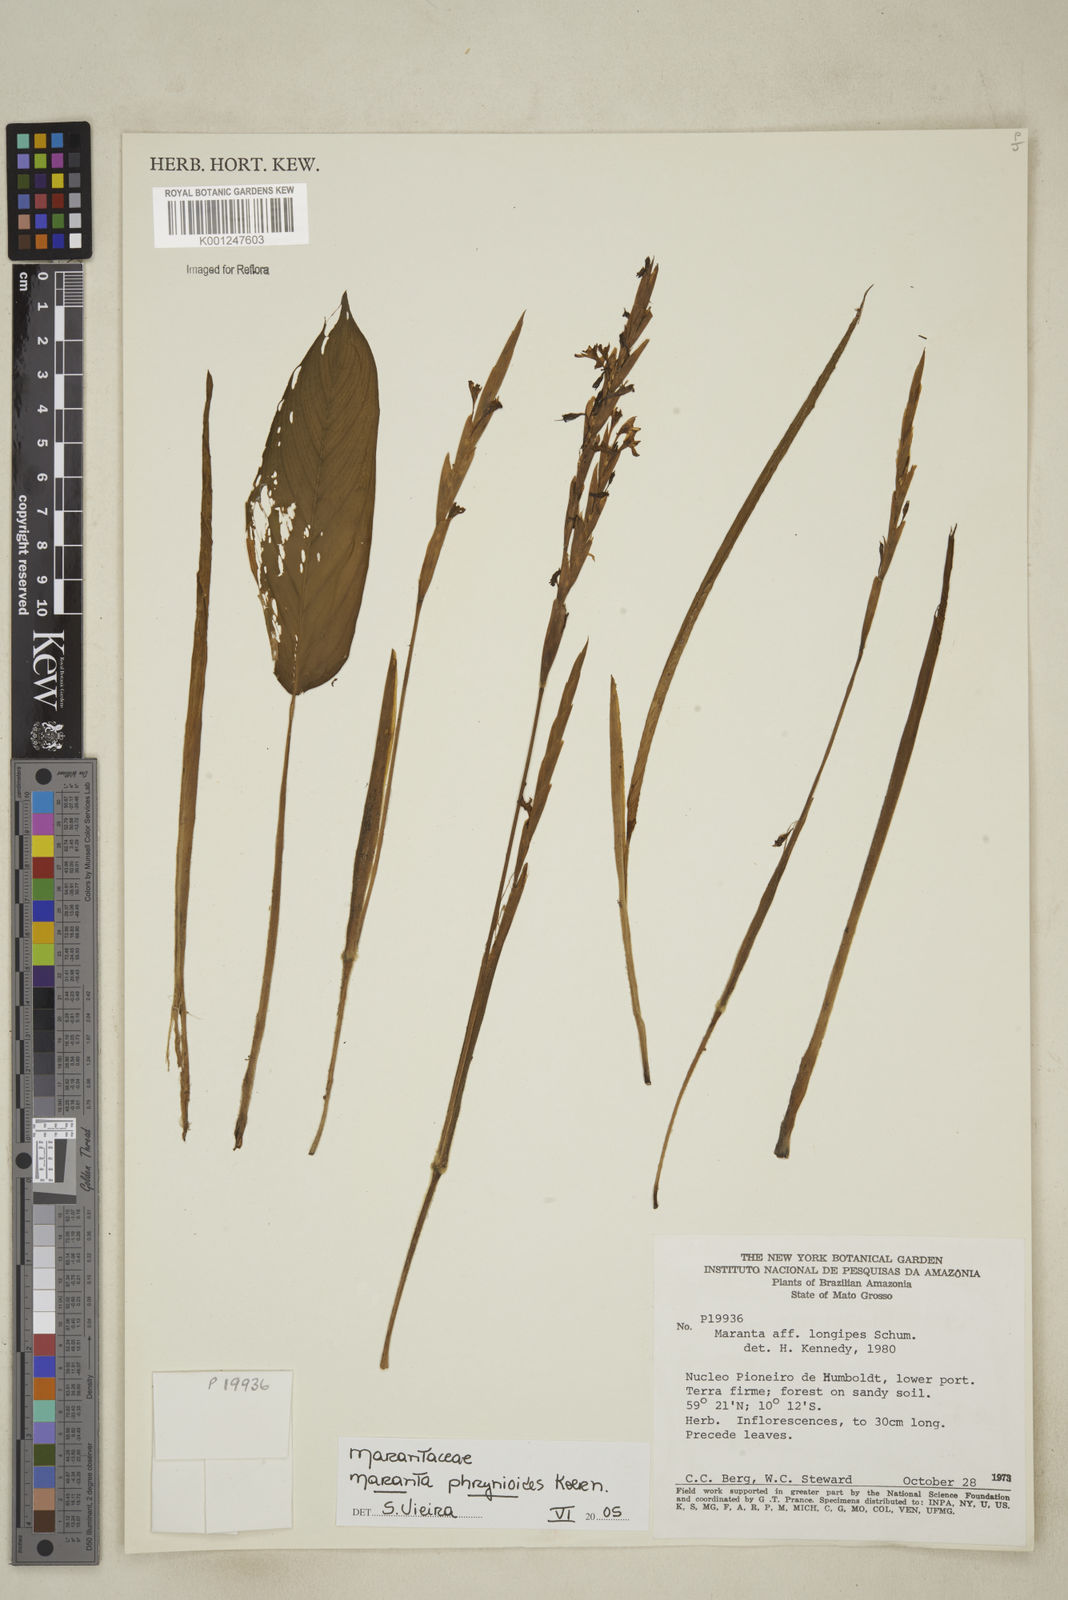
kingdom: Plantae
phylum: Tracheophyta
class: Liliopsida
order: Zingiberales
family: Marantaceae
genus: Maranta
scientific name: Maranta phrynioides
